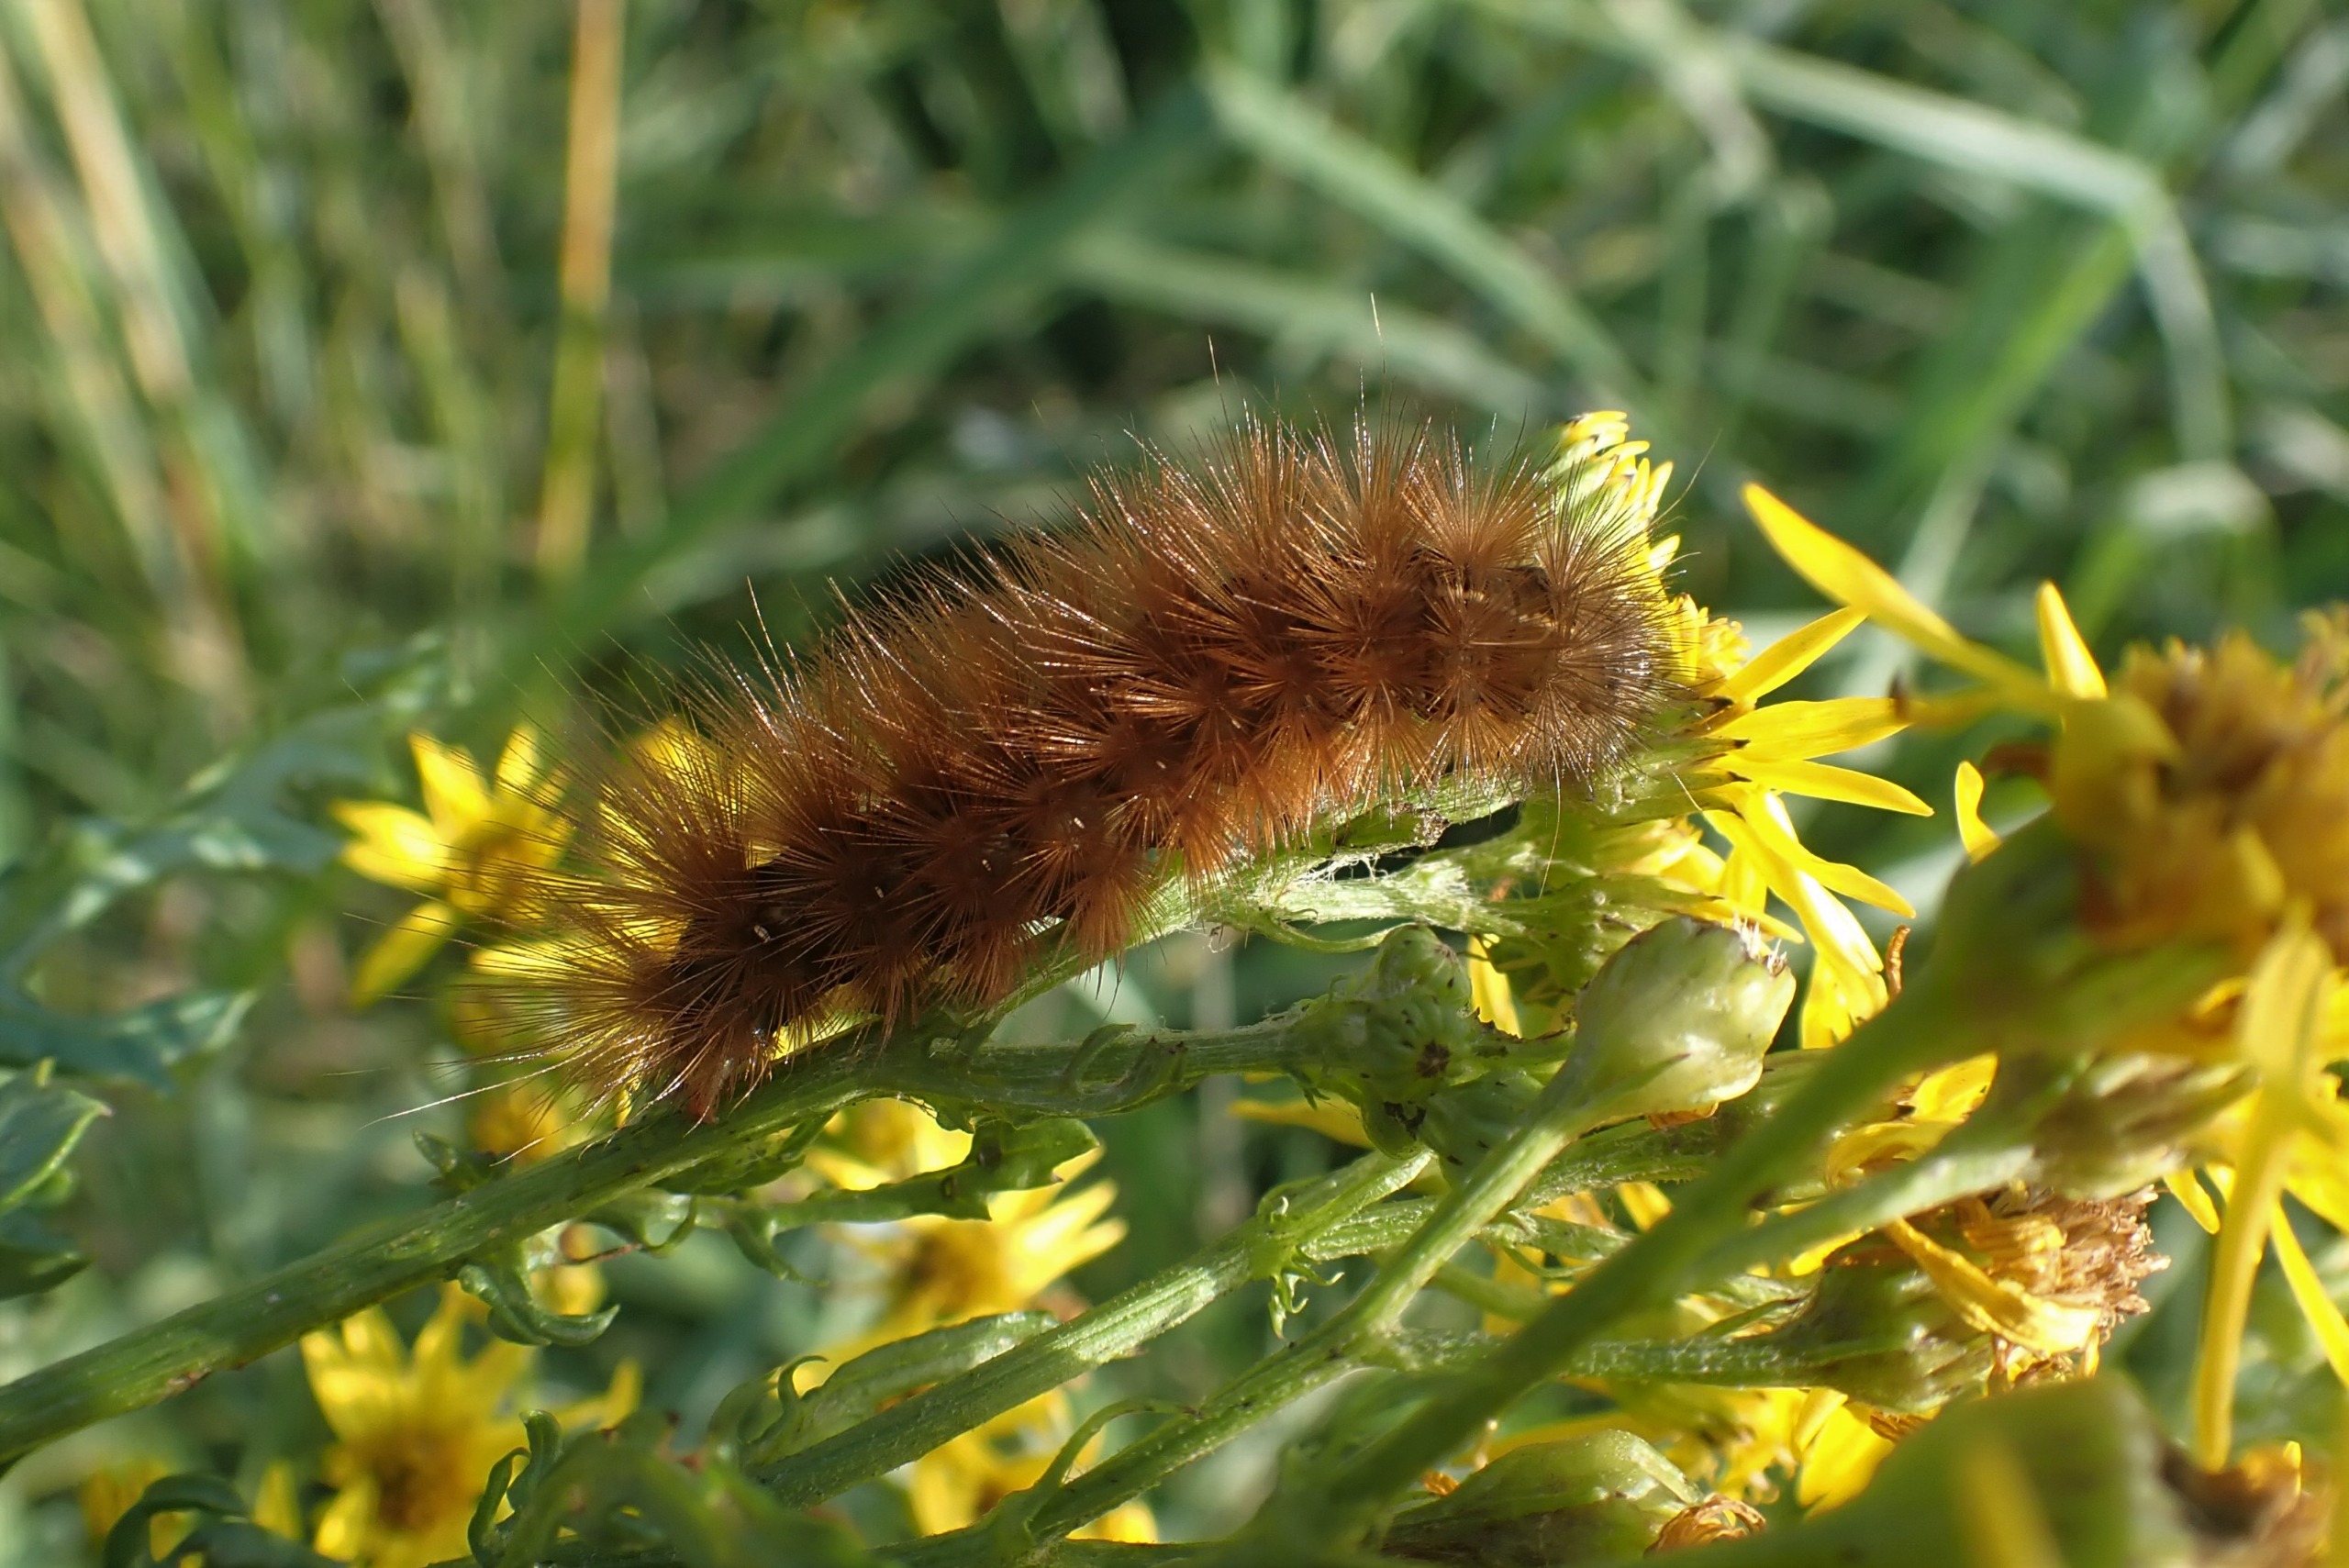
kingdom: Animalia
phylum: Arthropoda
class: Insecta
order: Lepidoptera
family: Erebidae
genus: Phragmatobia
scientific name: Phragmatobia fuliginosa
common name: Kanelbjørn
